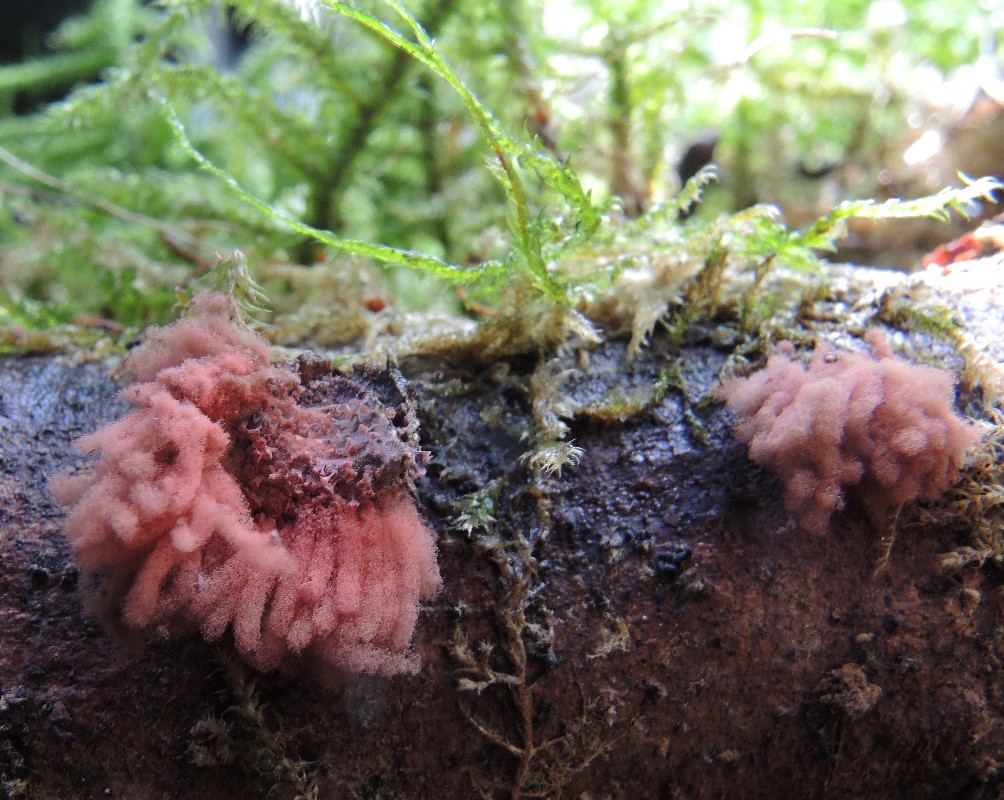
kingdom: Protozoa
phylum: Mycetozoa
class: Myxomycetes
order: Trichiales
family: Arcyriaceae
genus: Arcyria
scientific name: Arcyria denudata
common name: karminrød skålsvøb
